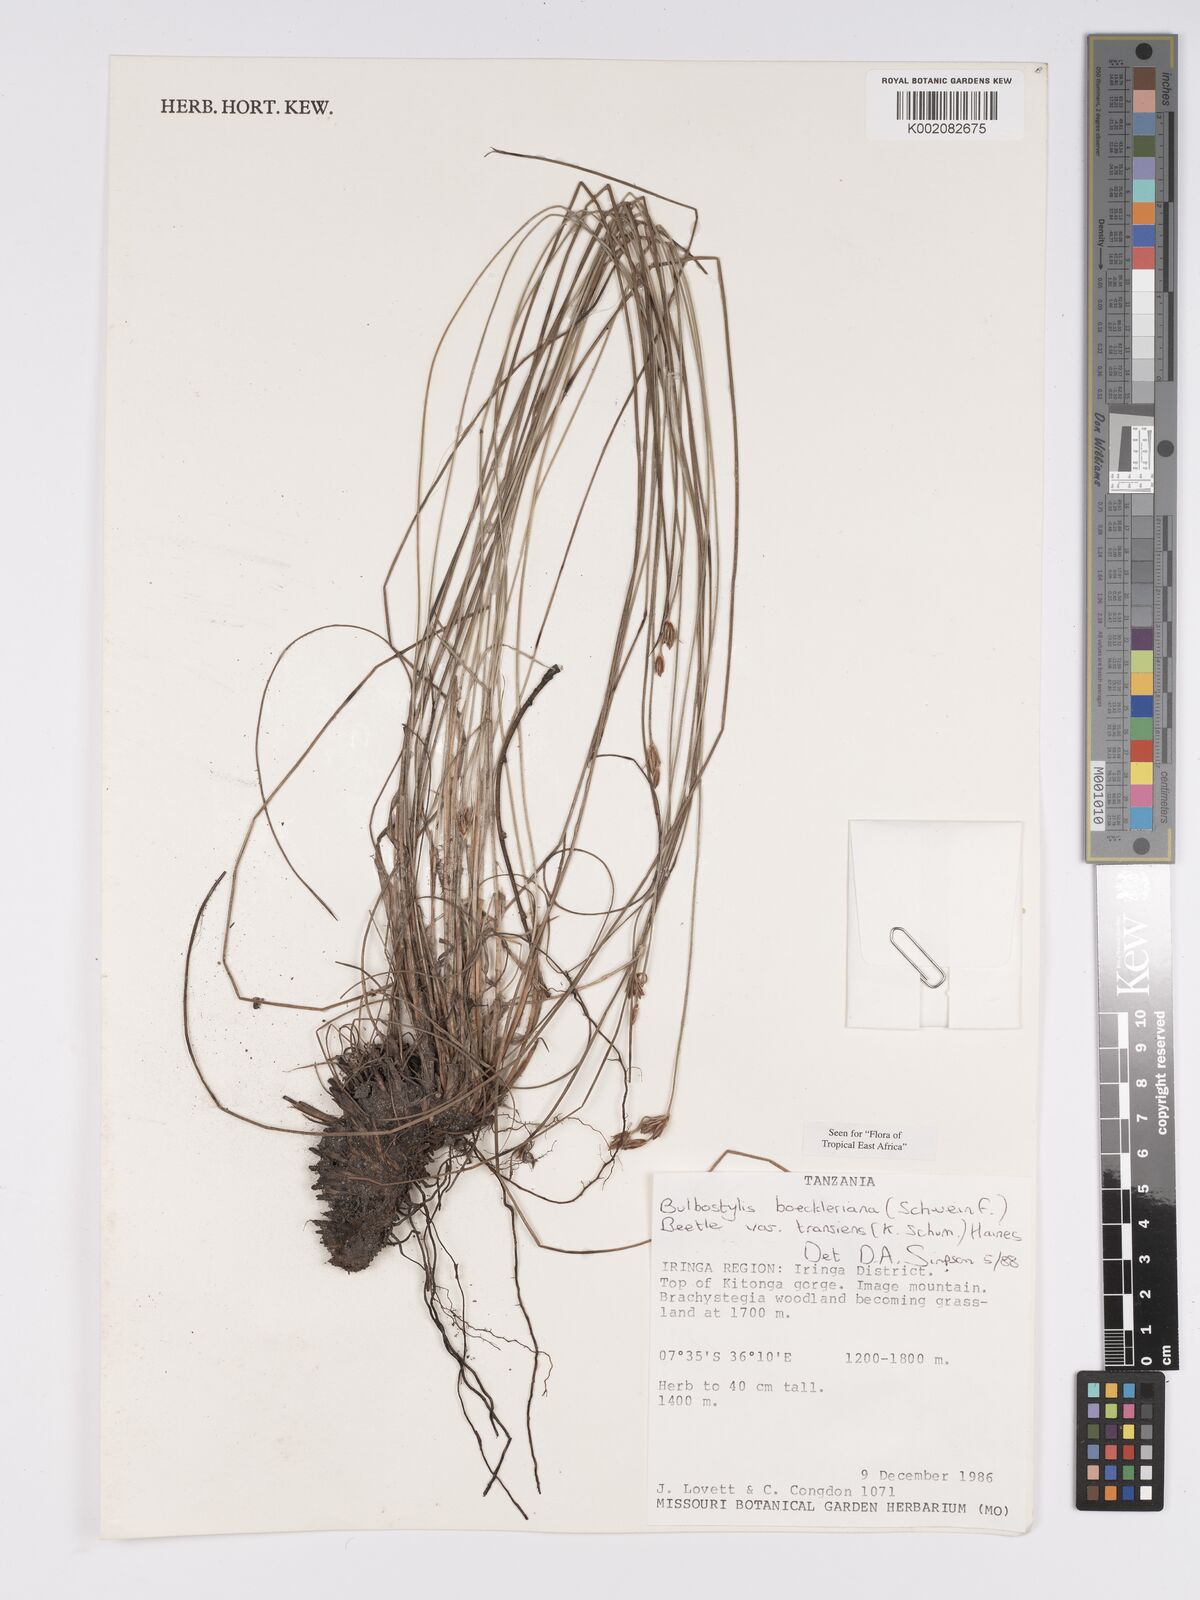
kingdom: Plantae
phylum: Tracheophyta
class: Liliopsida
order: Poales
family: Cyperaceae
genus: Bulbostylis
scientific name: Bulbostylis boeckeleriana
